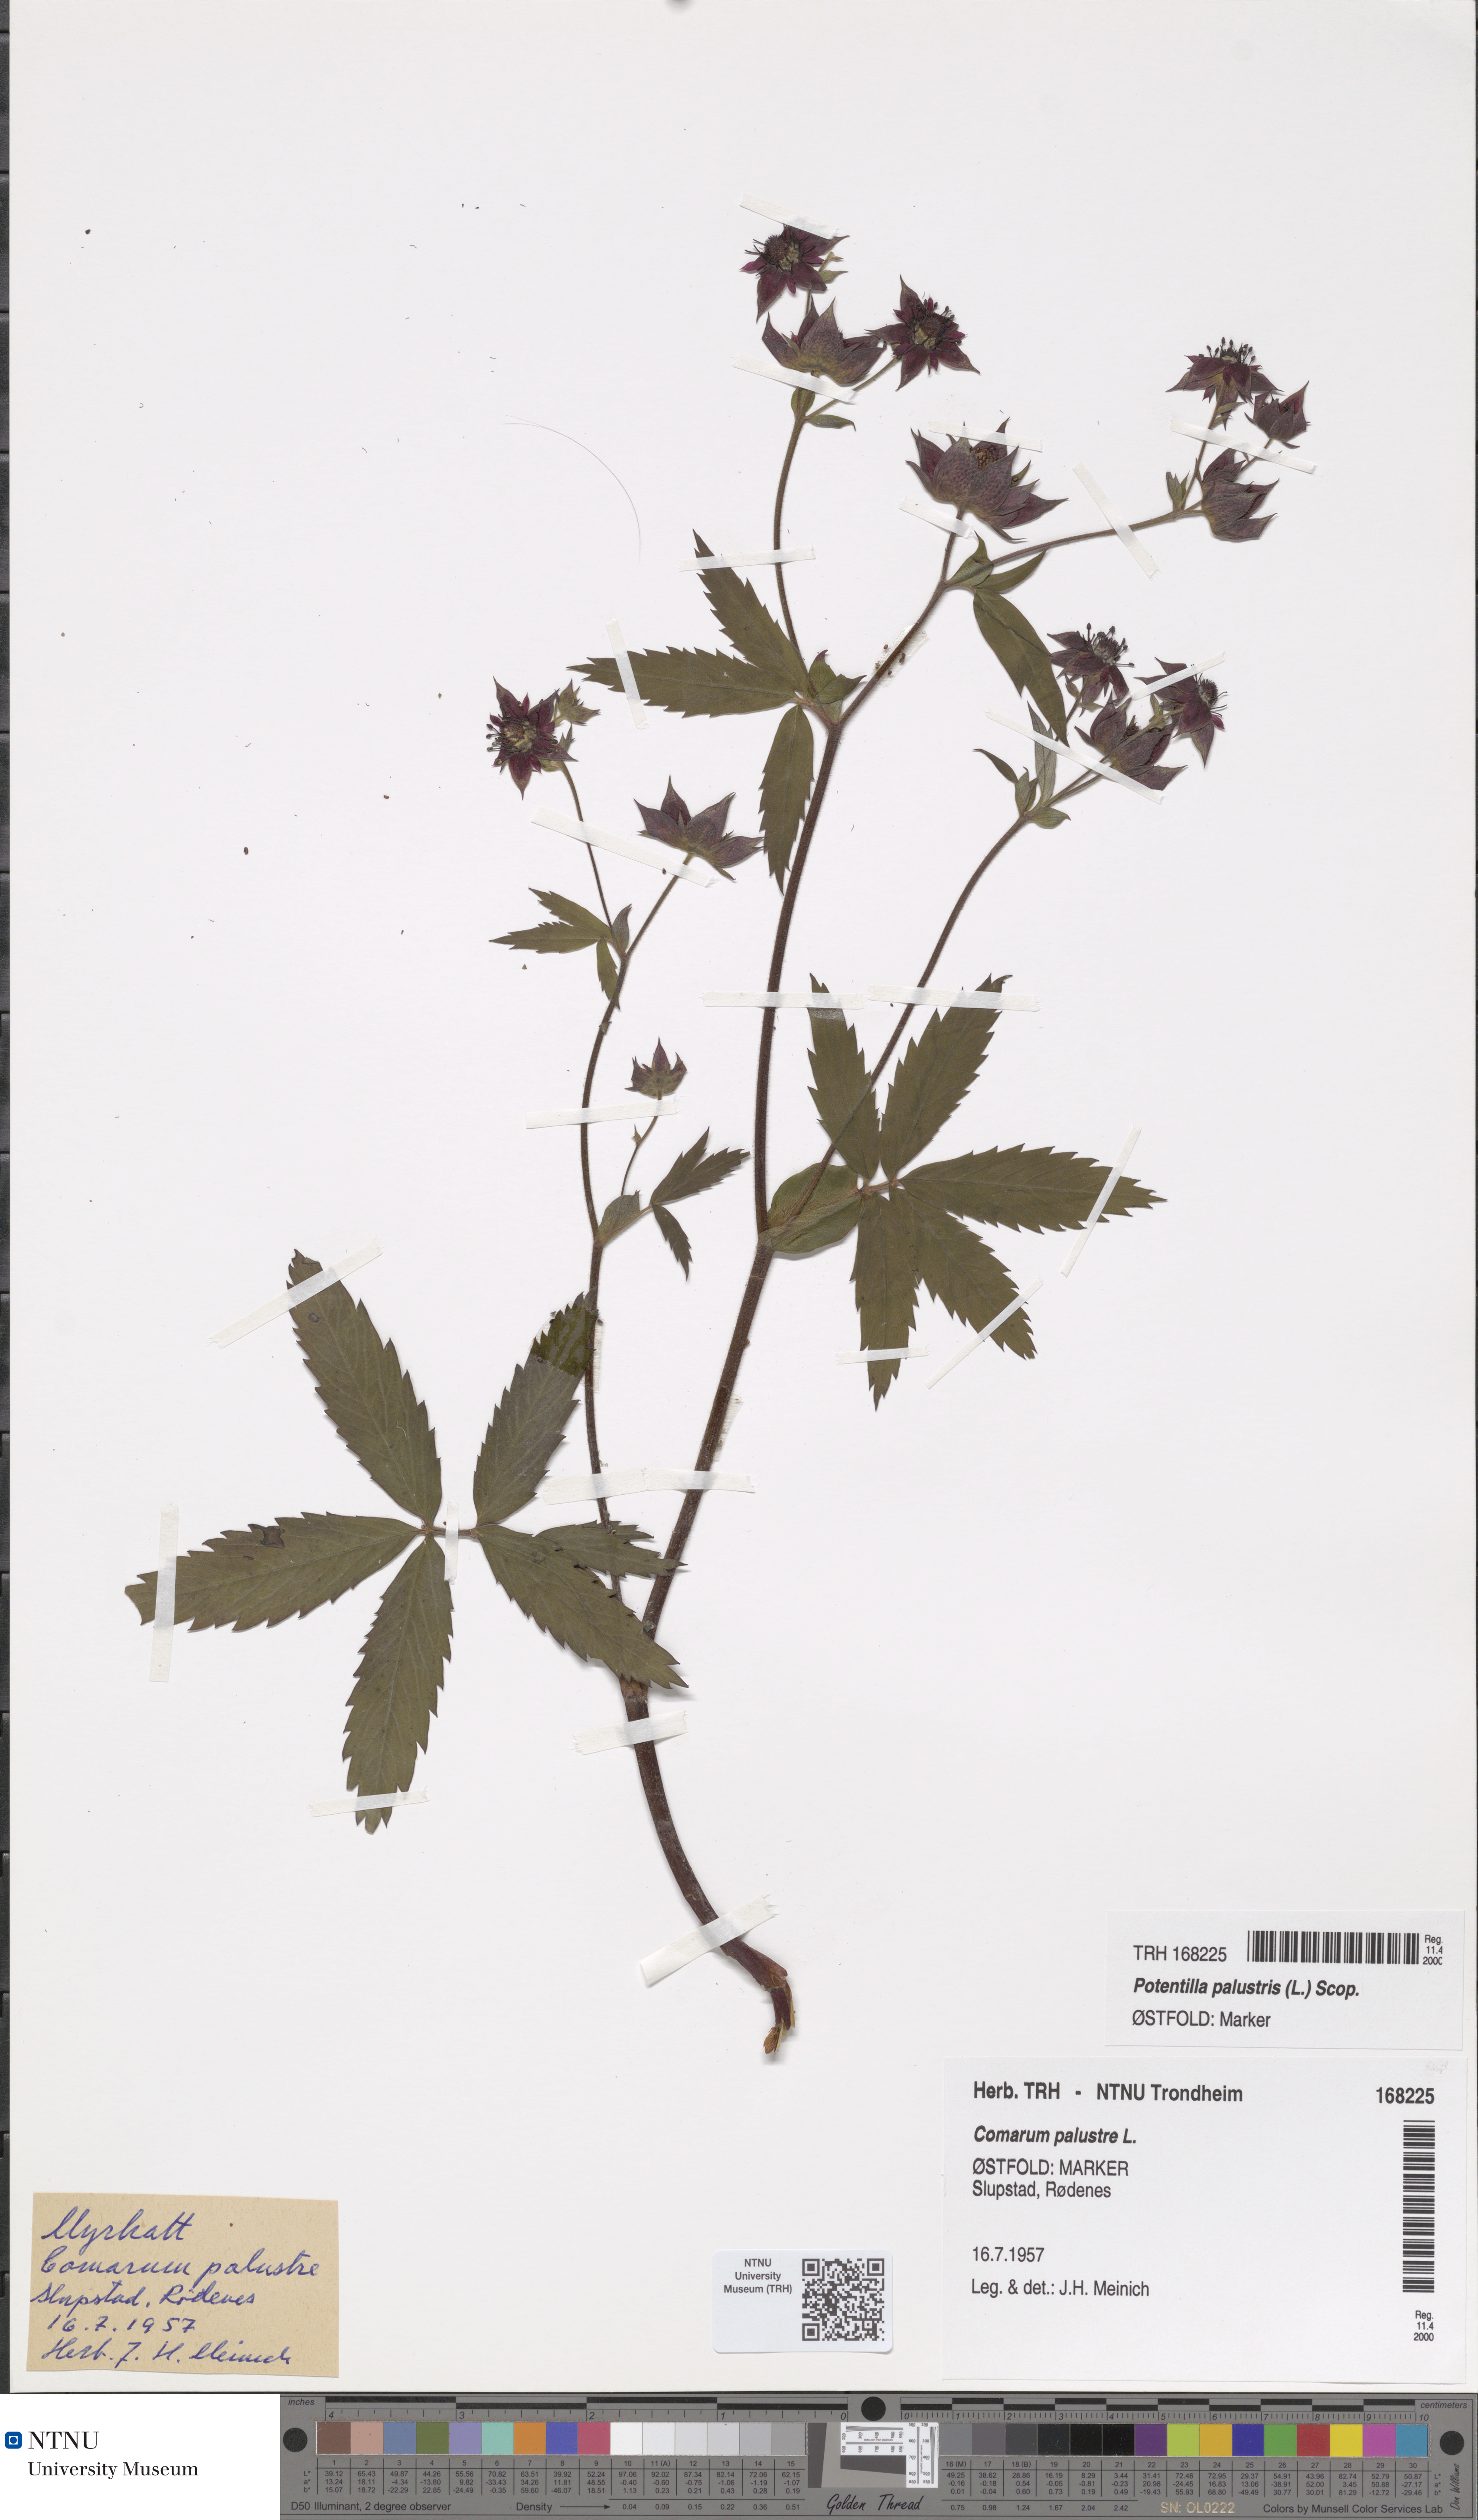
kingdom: Plantae
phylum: Tracheophyta
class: Magnoliopsida
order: Rosales
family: Rosaceae
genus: Comarum
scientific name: Comarum palustre
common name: Marsh cinquefoil
